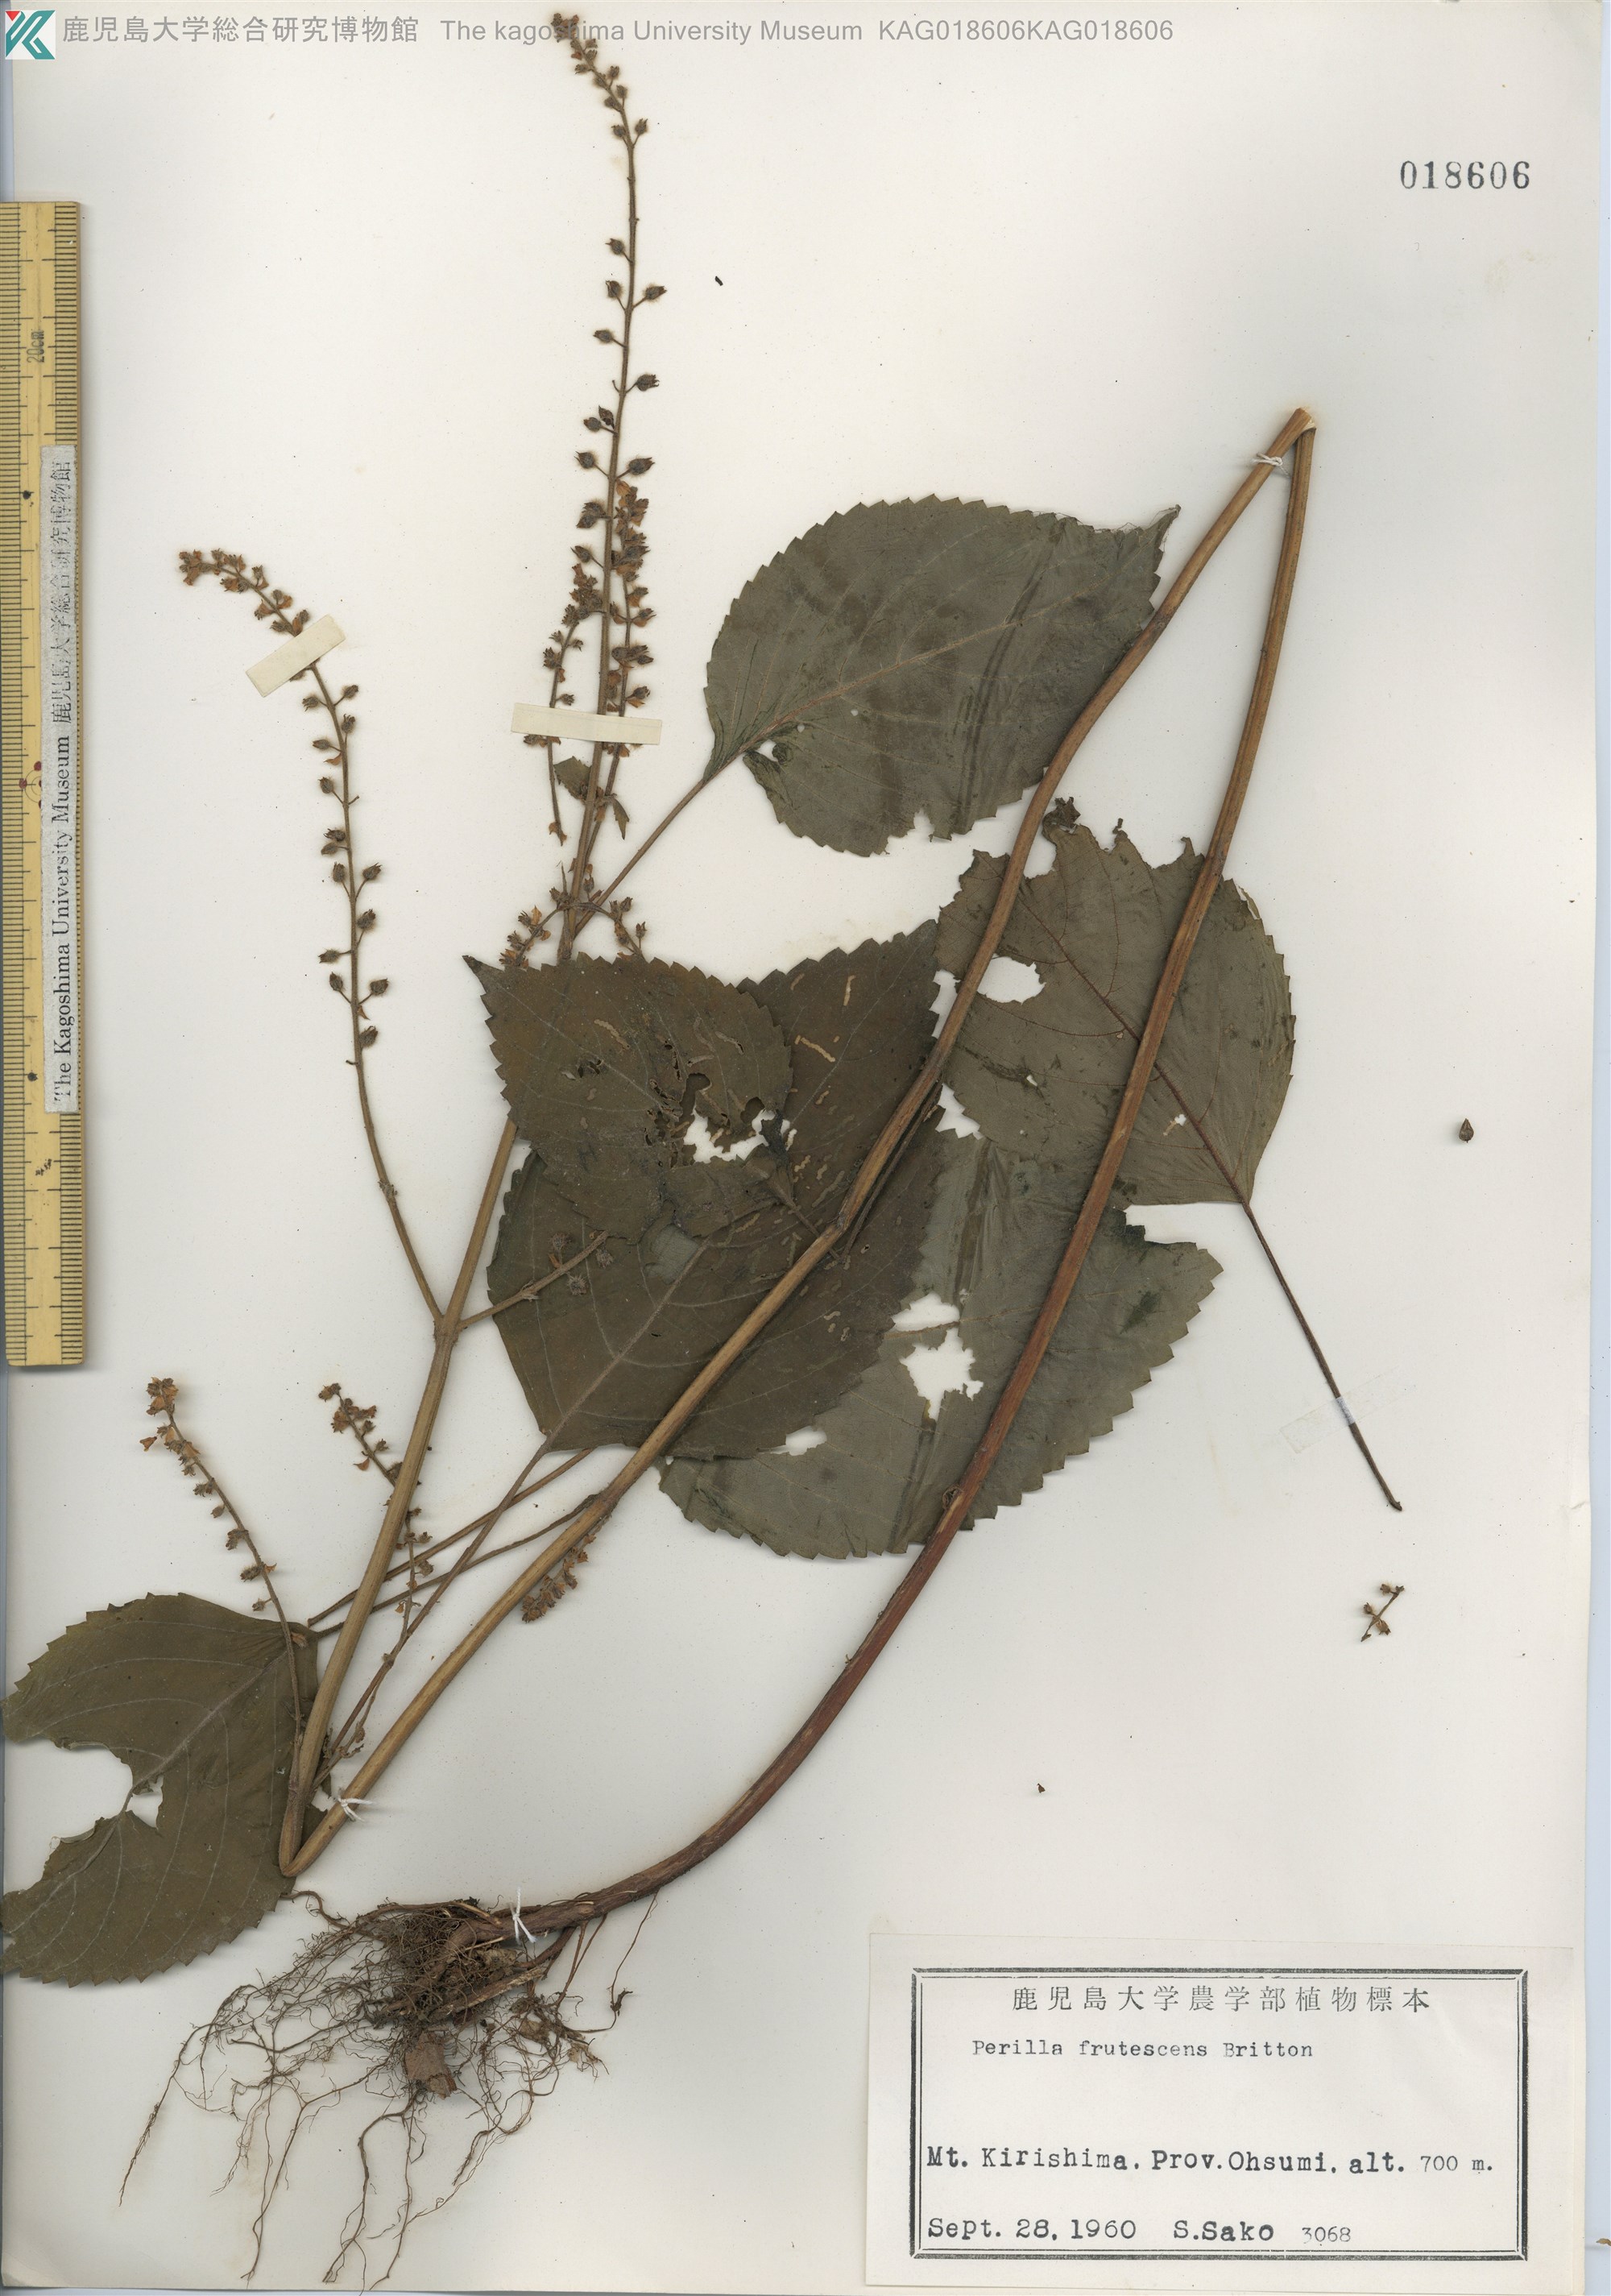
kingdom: Plantae
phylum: Tracheophyta
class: Magnoliopsida
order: Lamiales
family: Lamiaceae
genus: Perilla
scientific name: Perilla frutescens
